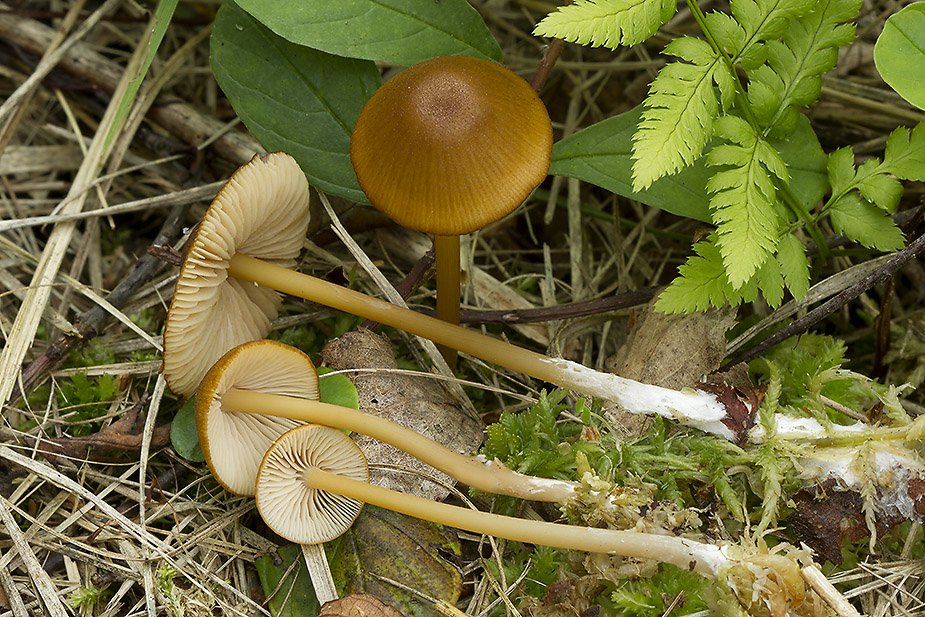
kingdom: Fungi
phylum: Basidiomycota
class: Agaricomycetes
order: Agaricales
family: Entolomataceae
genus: Entoloma
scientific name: Entoloma formosum
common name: brungul rødblad
